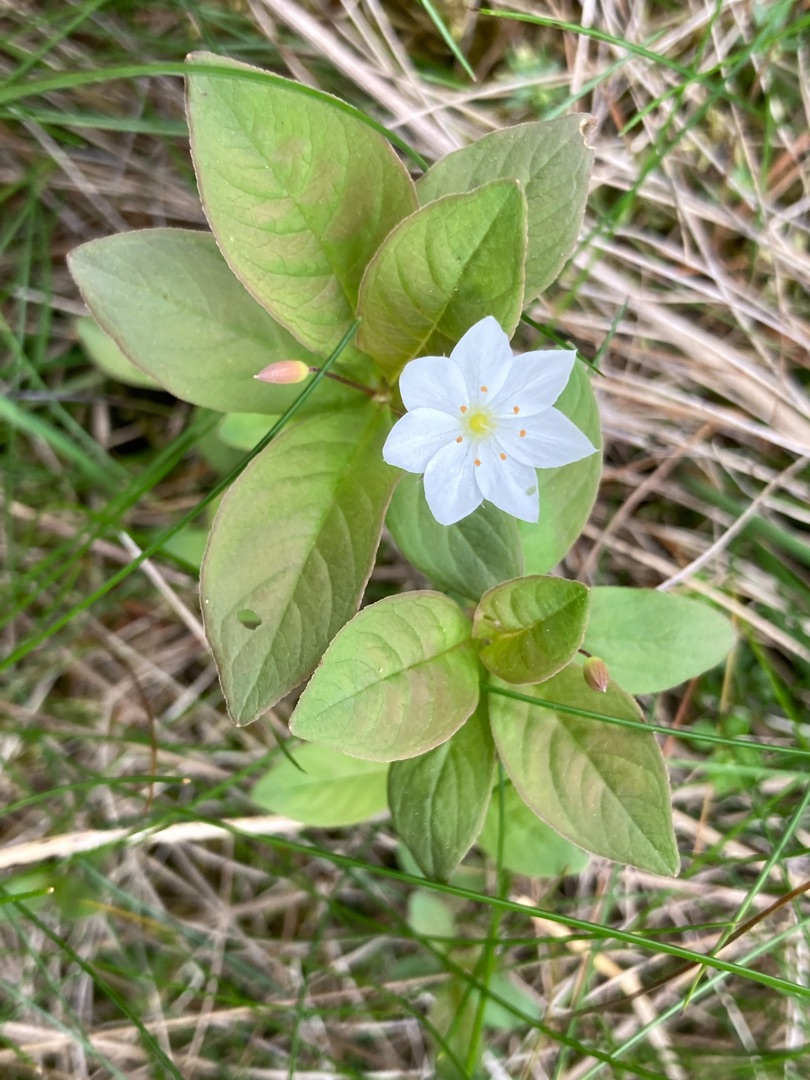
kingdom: Plantae
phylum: Tracheophyta
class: Magnoliopsida
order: Ericales
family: Primulaceae
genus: Lysimachia
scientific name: Lysimachia europaea
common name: Skovstjerne
